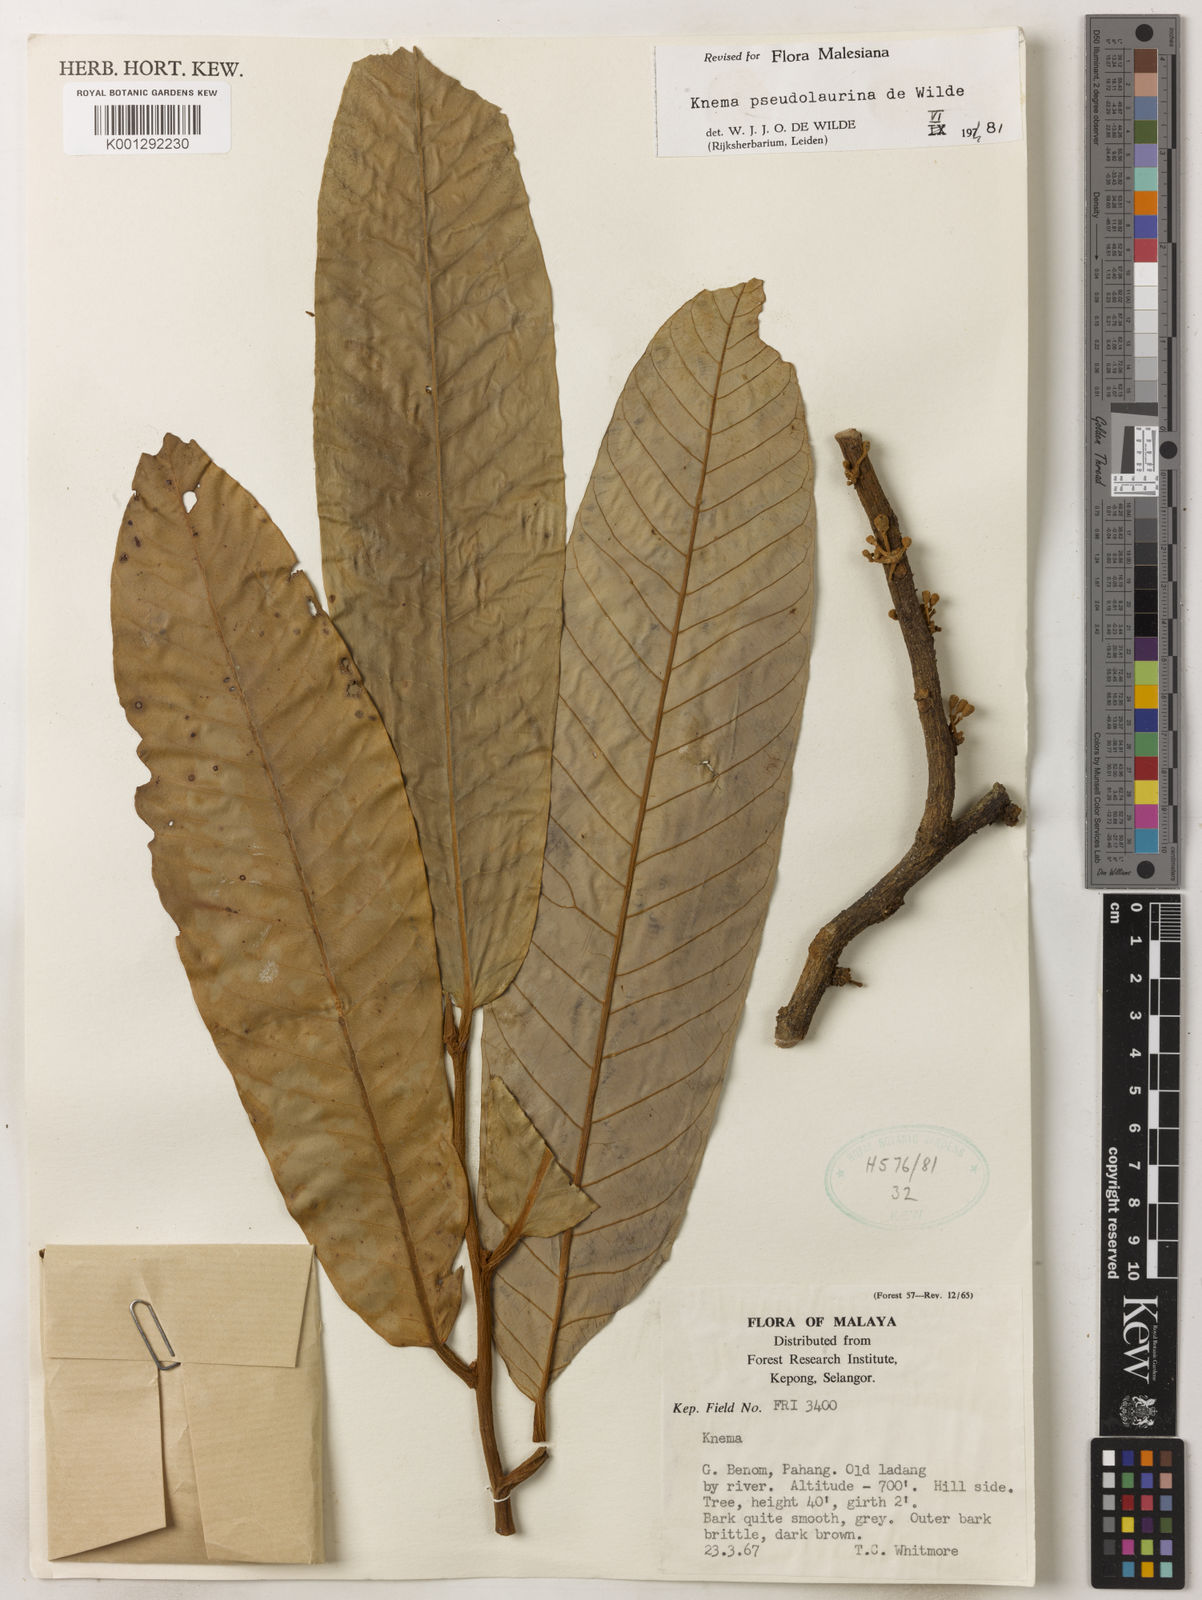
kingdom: Plantae
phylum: Tracheophyta
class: Magnoliopsida
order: Magnoliales
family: Myristicaceae
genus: Knema
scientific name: Knema pseudolaurina
